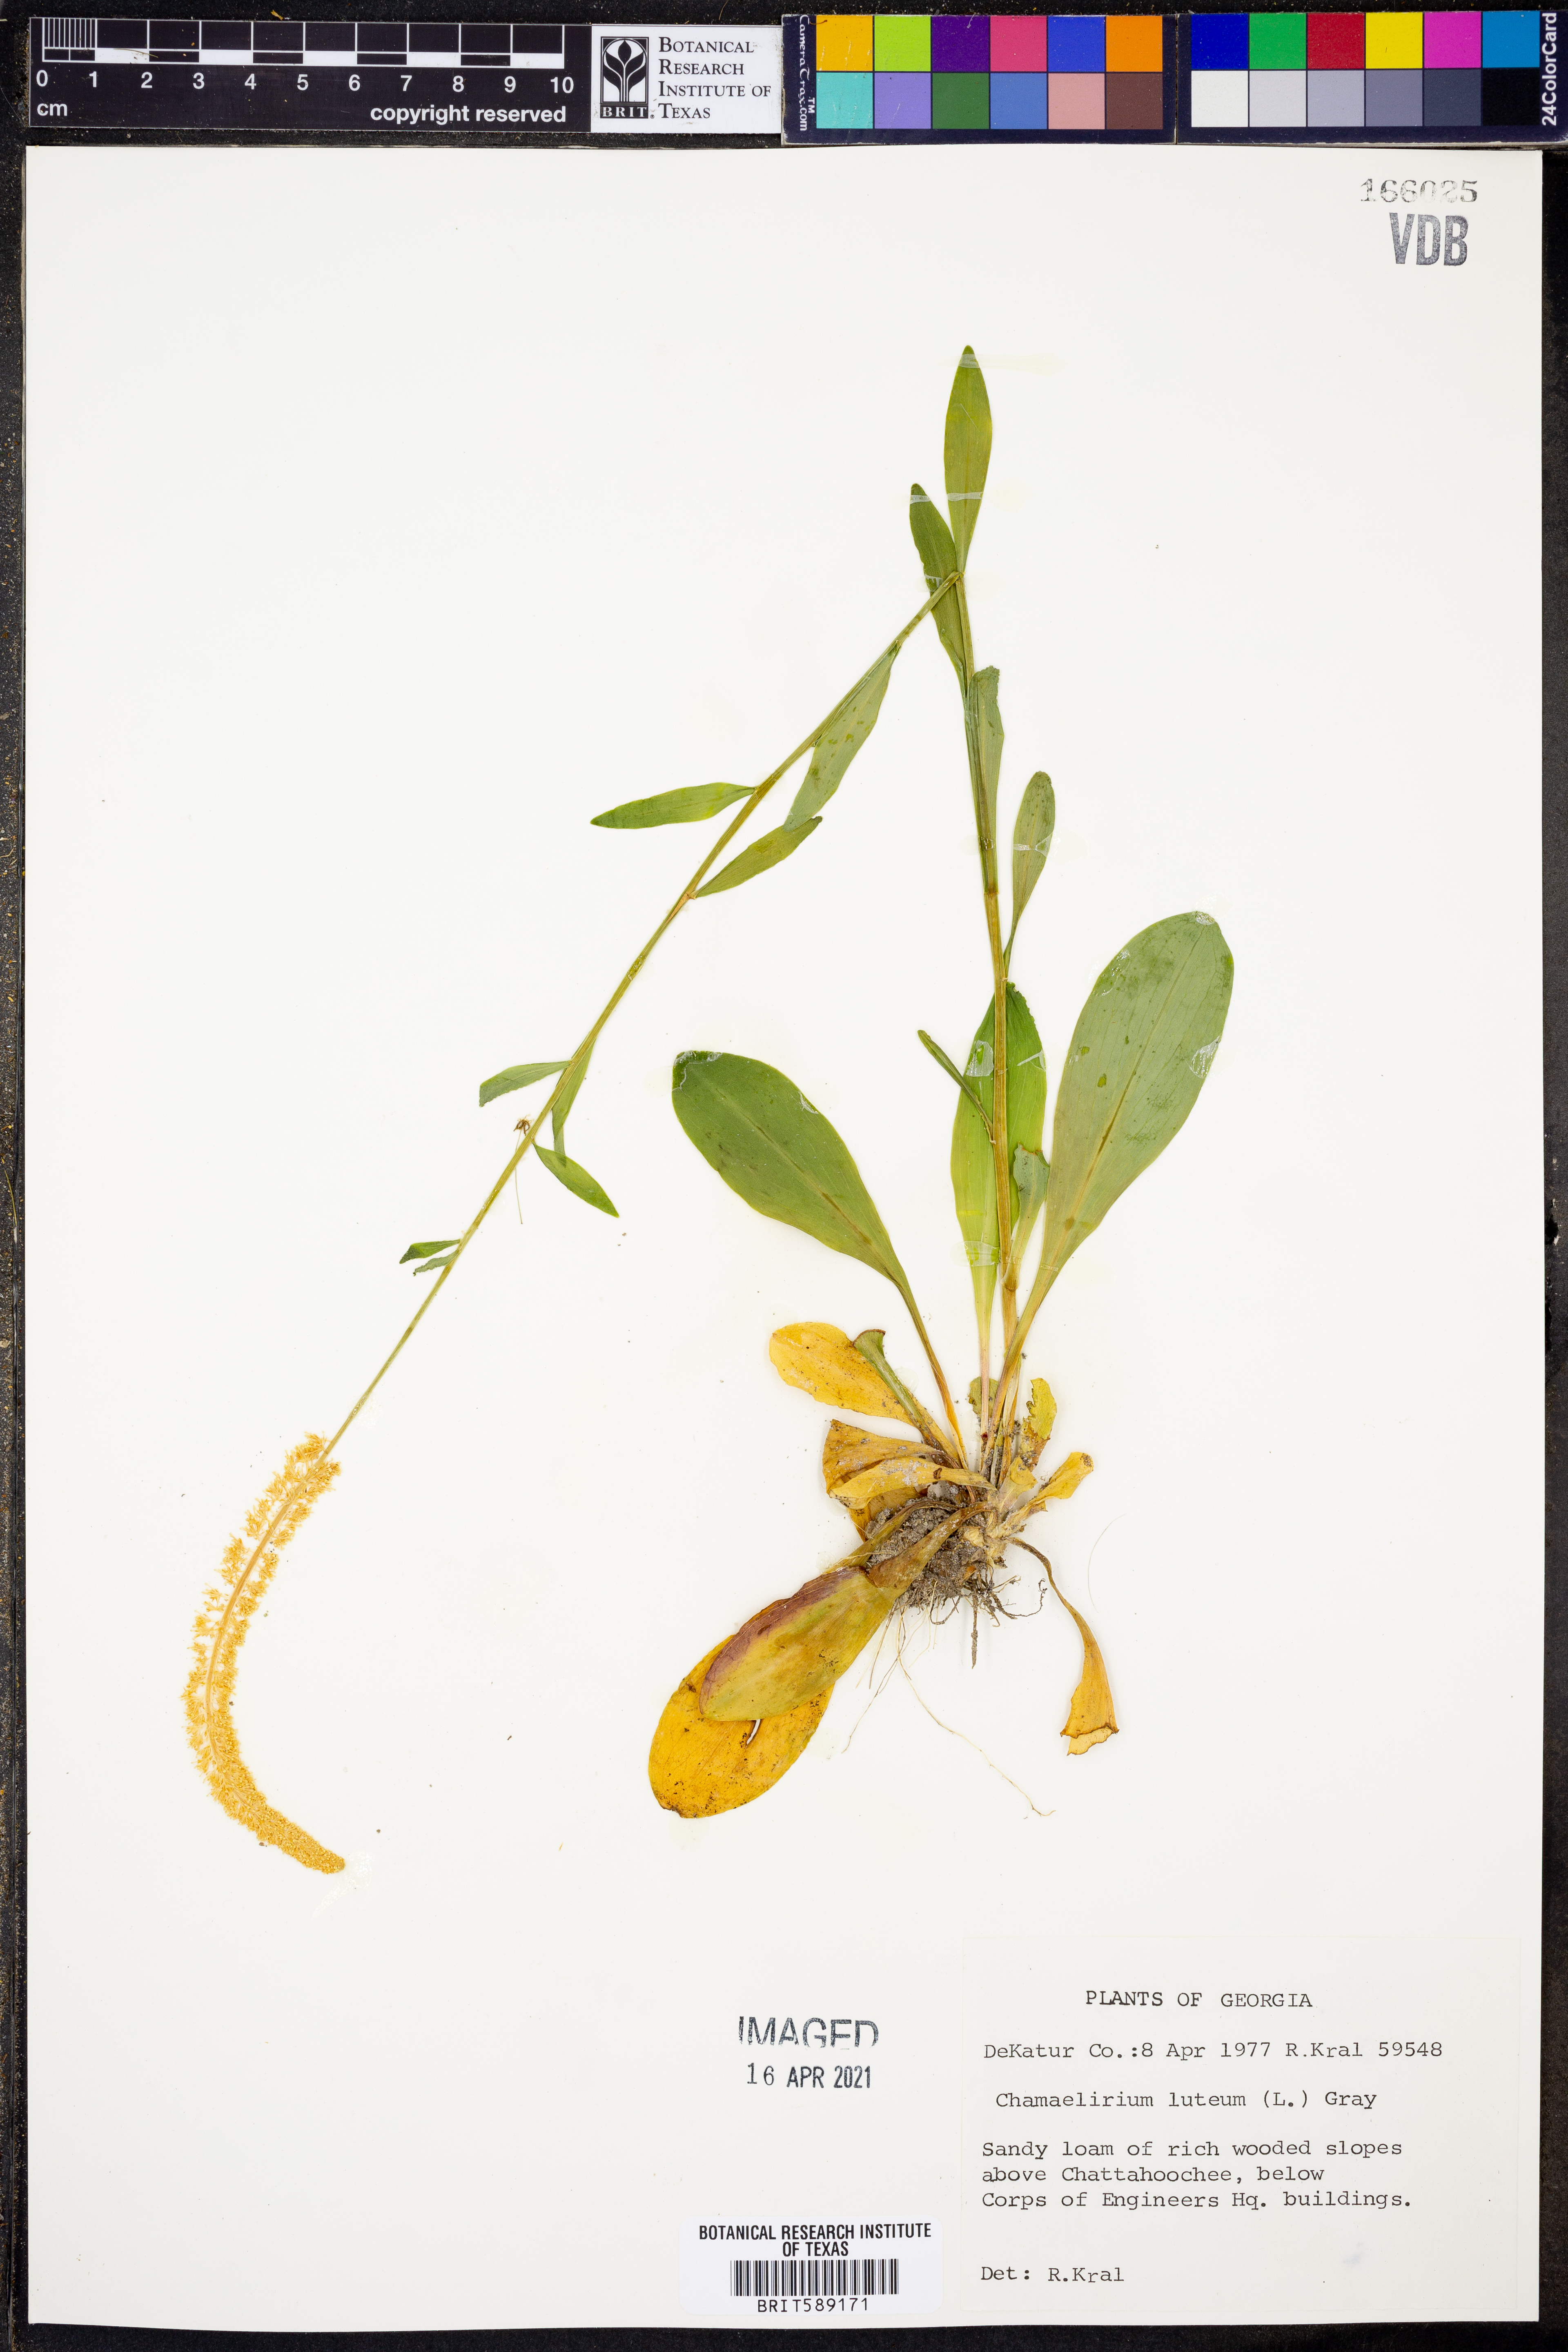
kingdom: Plantae
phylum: Tracheophyta
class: Liliopsida
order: Liliales
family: Melanthiaceae
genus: Chamaelirium
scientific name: Chamaelirium luteum
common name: Fairy-wand
